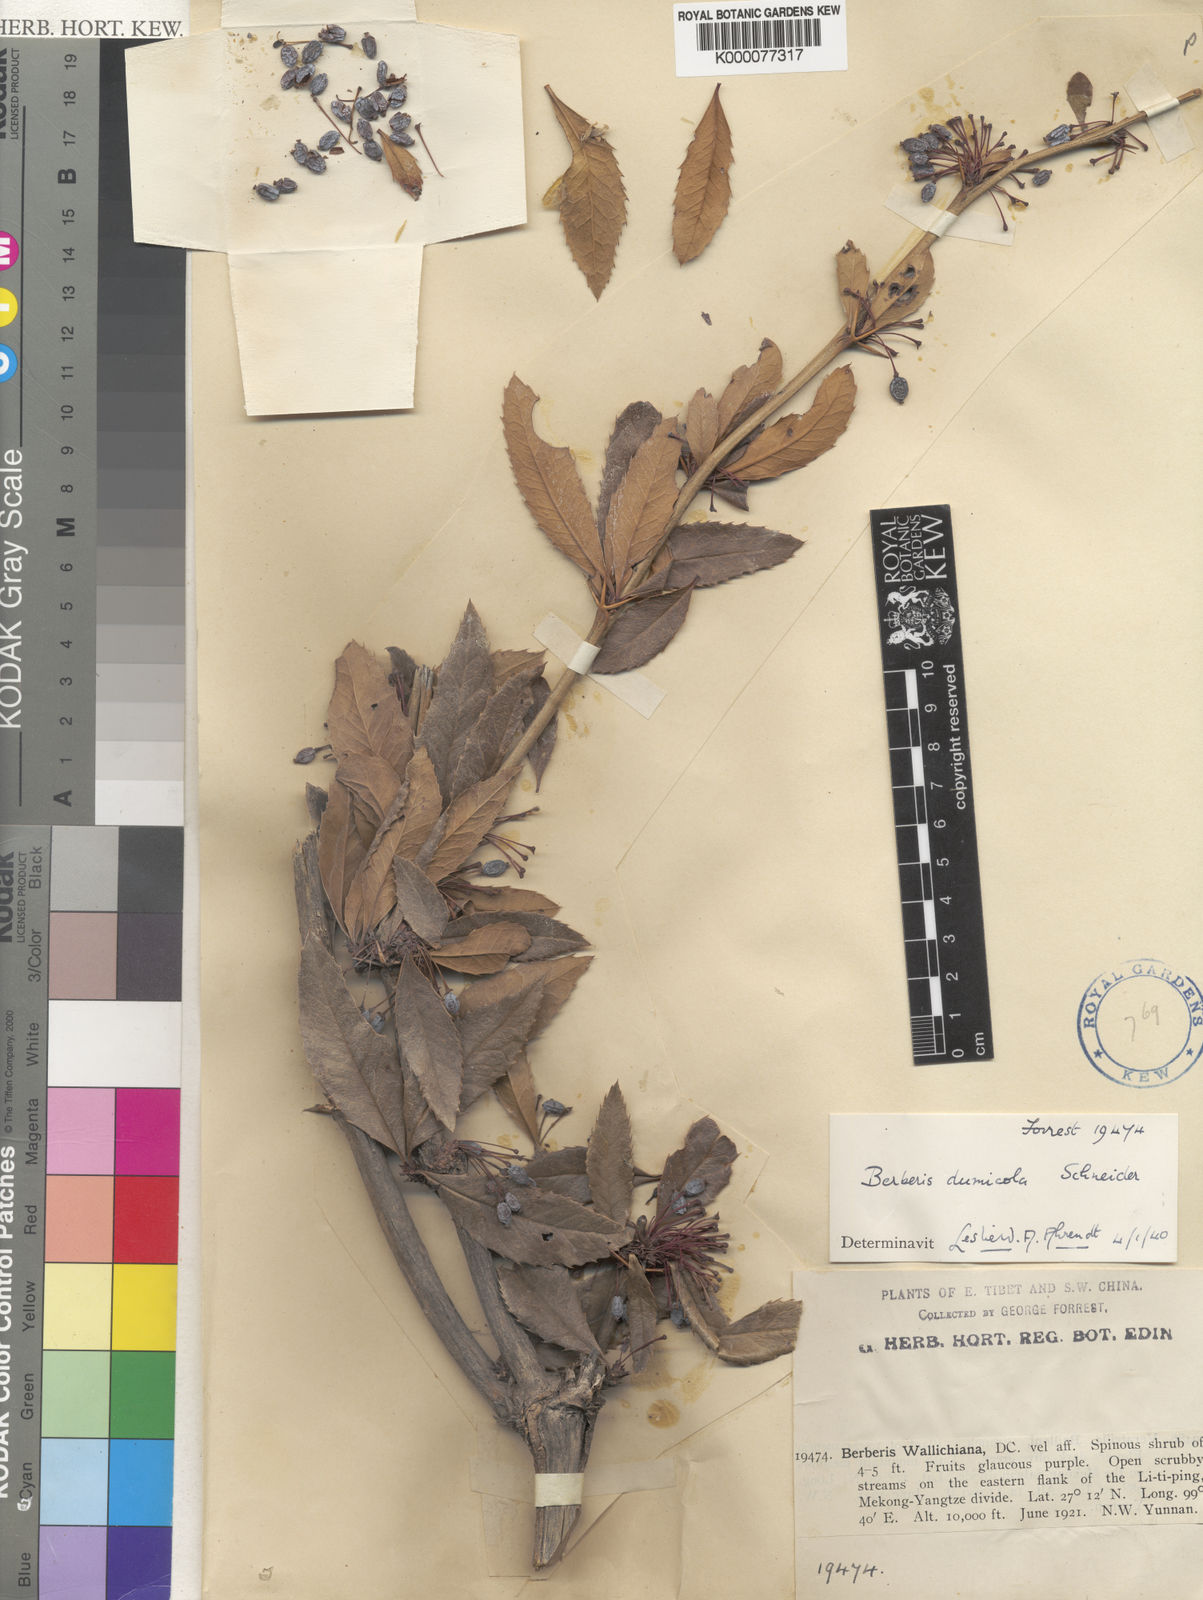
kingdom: Plantae
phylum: Tracheophyta
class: Magnoliopsida
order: Ranunculales
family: Berberidaceae
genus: Berberis
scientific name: Berberis dumicola
